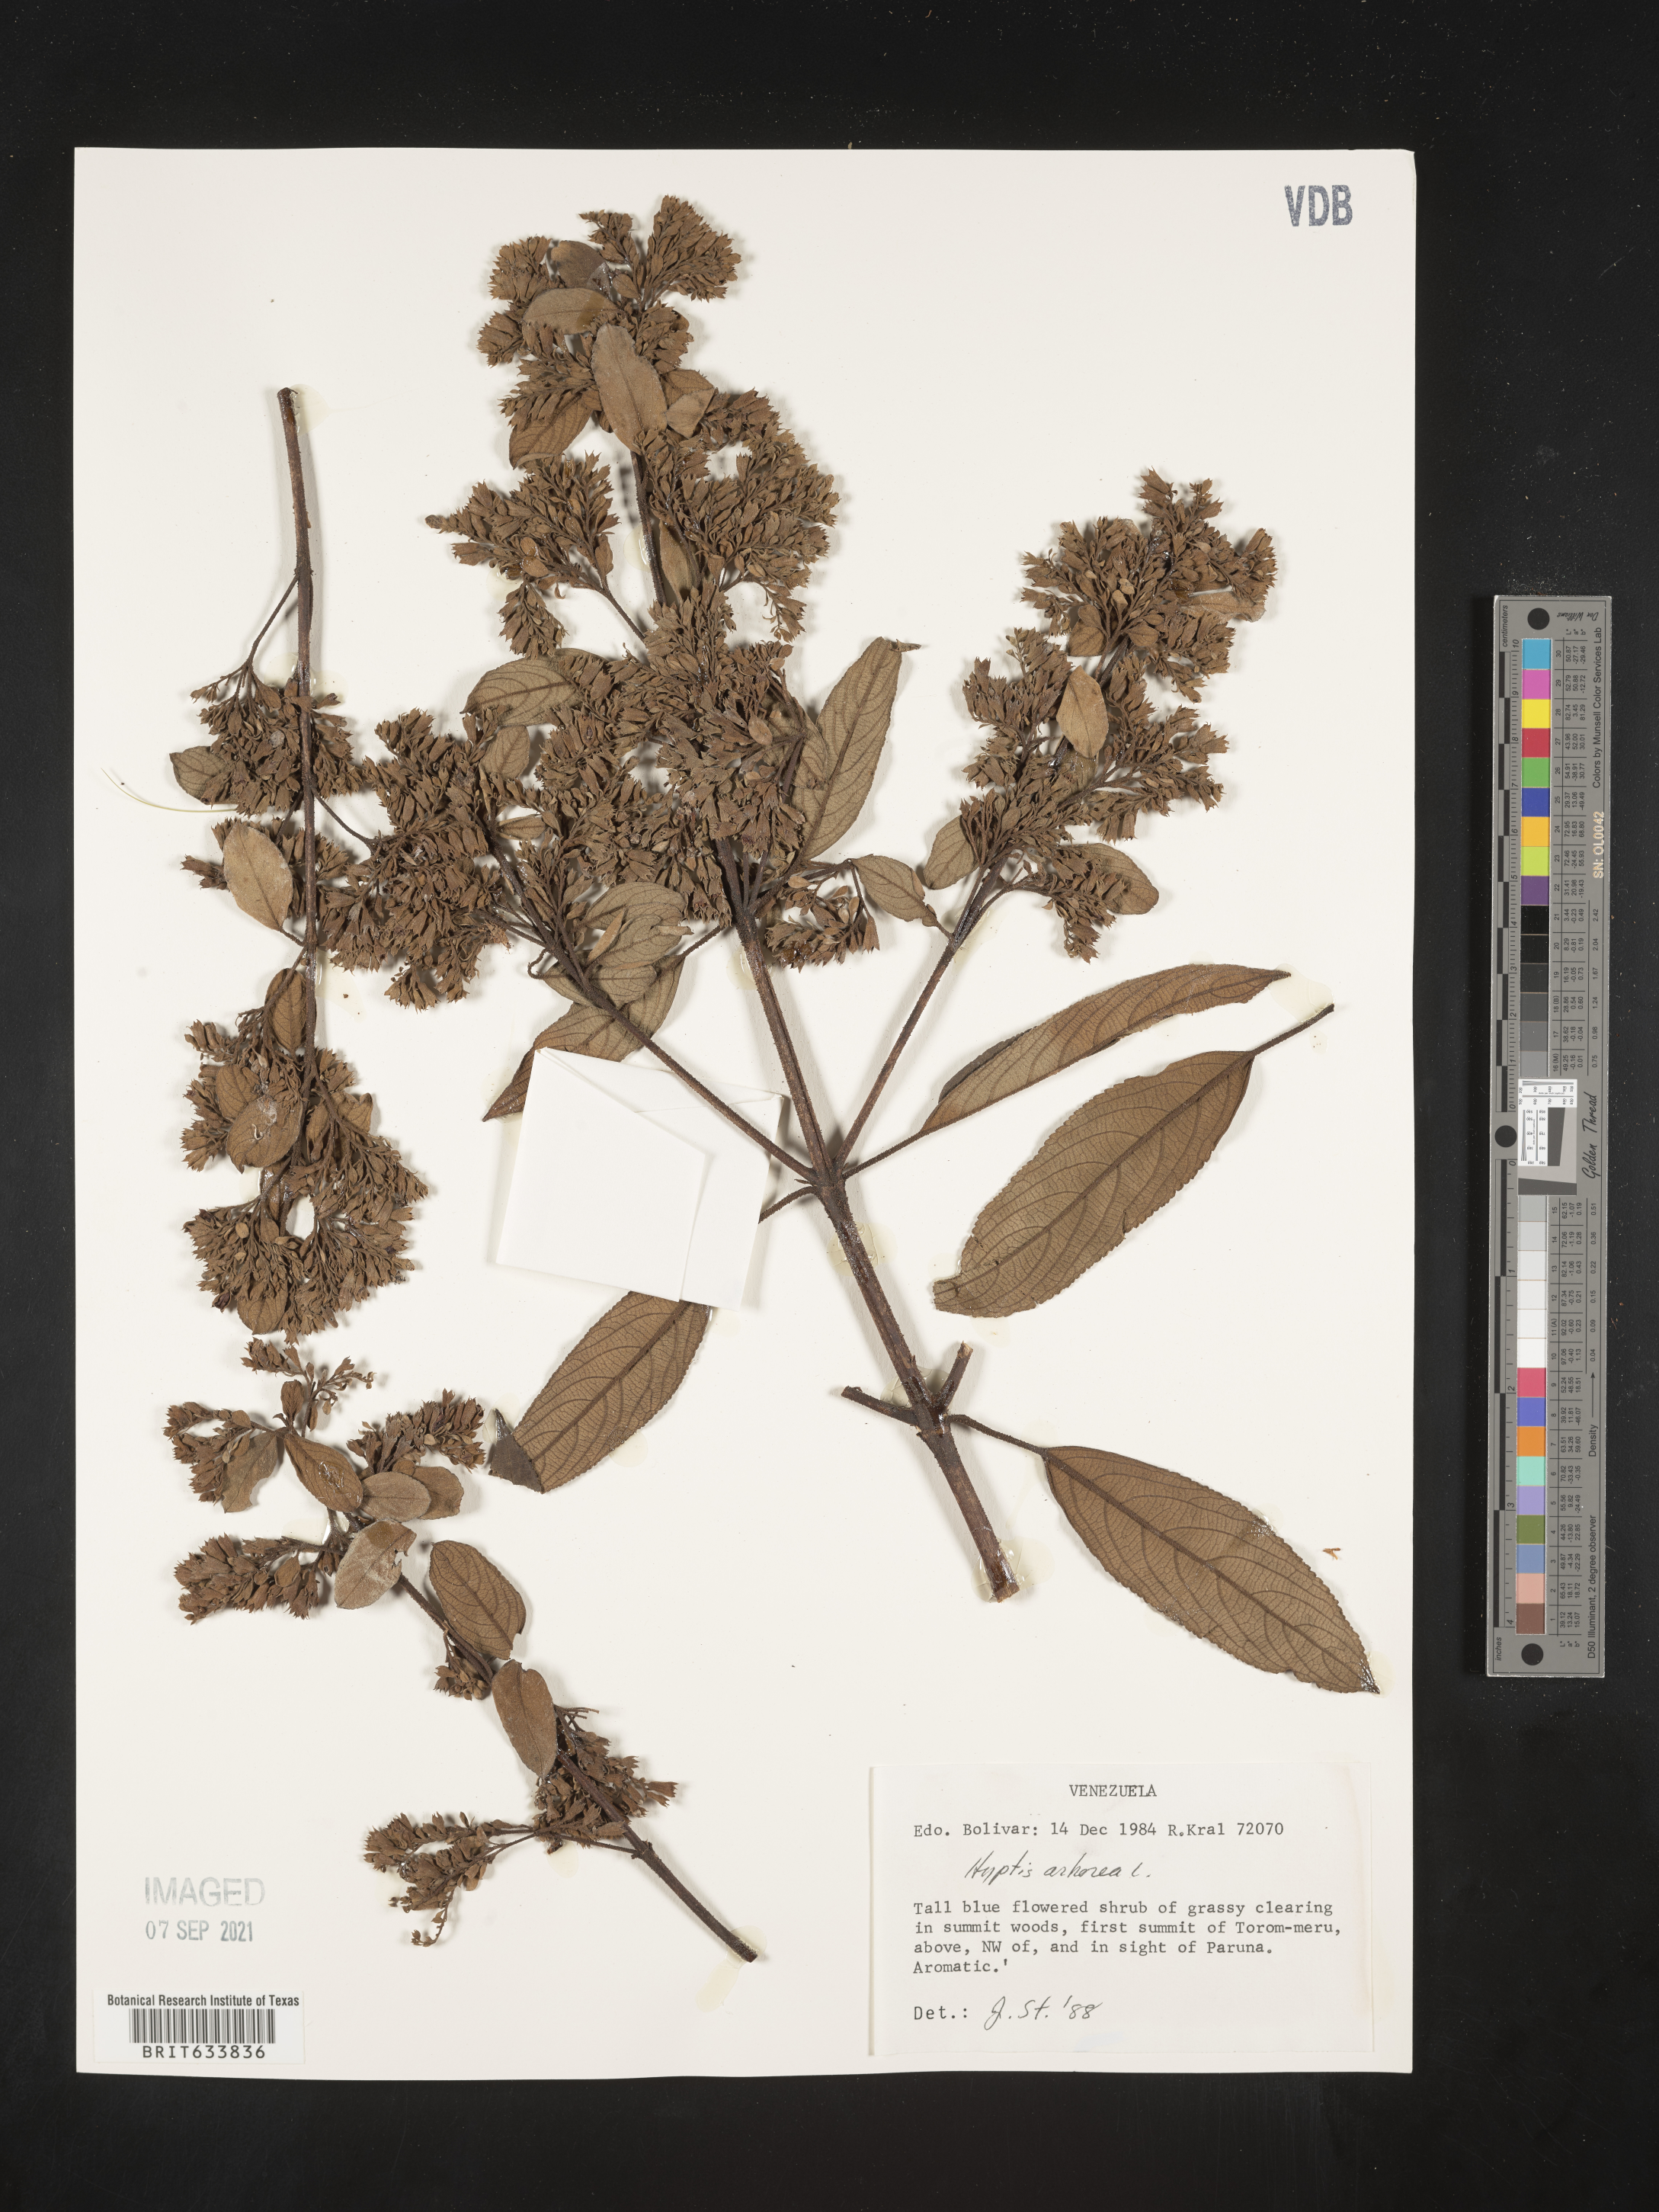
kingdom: Plantae
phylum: Tracheophyta
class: Magnoliopsida
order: Lamiales
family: Lamiaceae
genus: Hyptis
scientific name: Hyptis
